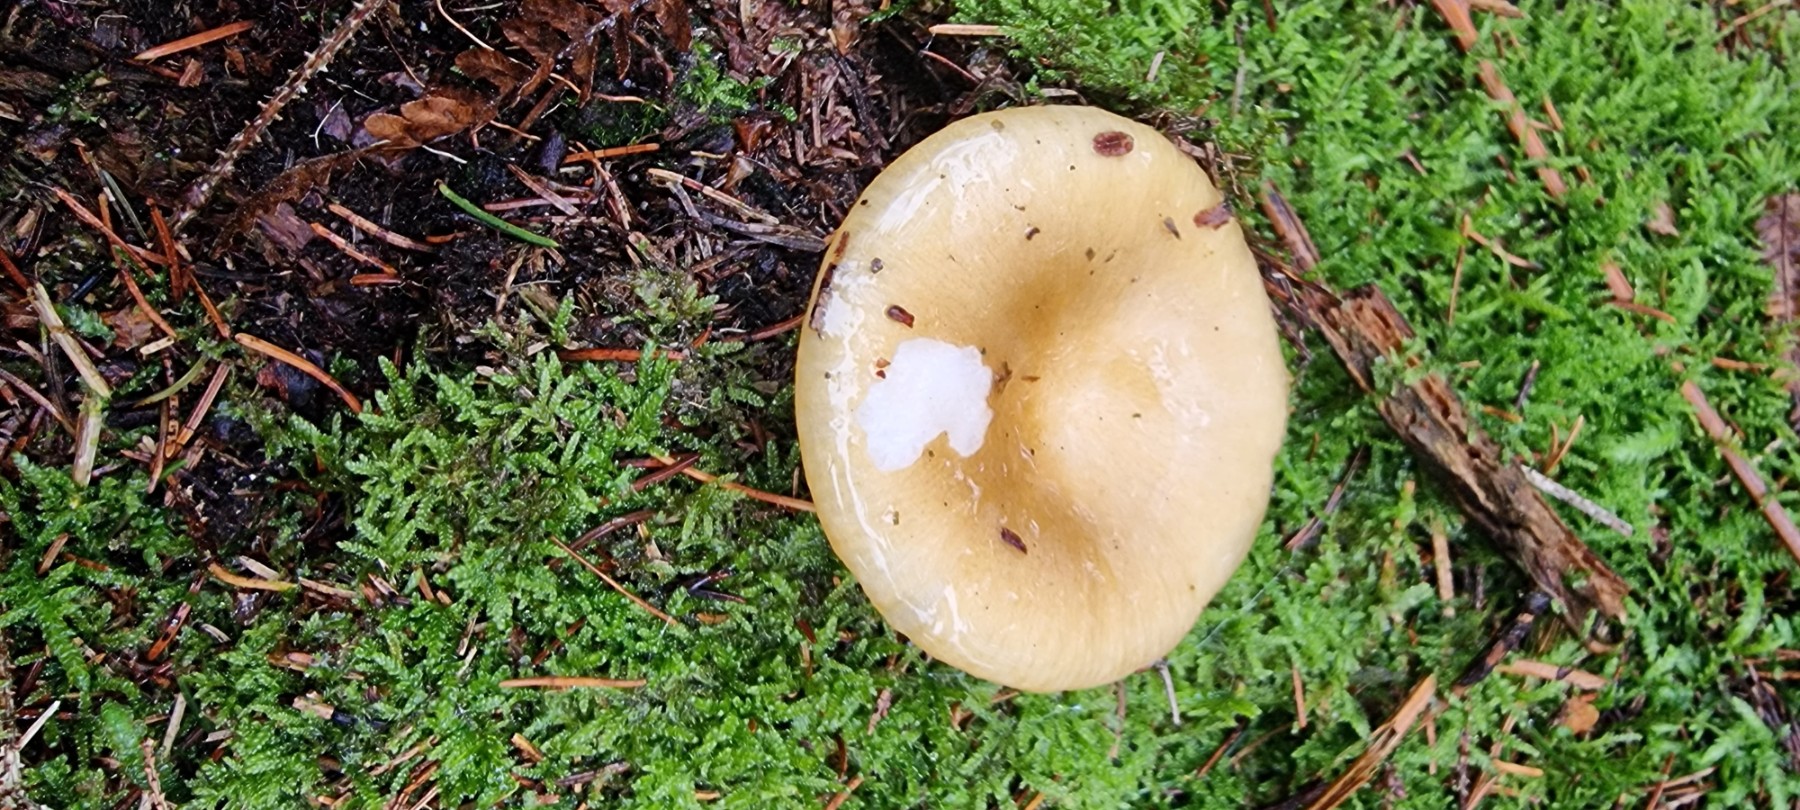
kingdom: Fungi
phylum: Basidiomycota
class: Agaricomycetes
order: Russulales
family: Russulaceae
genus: Russula
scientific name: Russula ochroleuca
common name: okkergul skørhat
